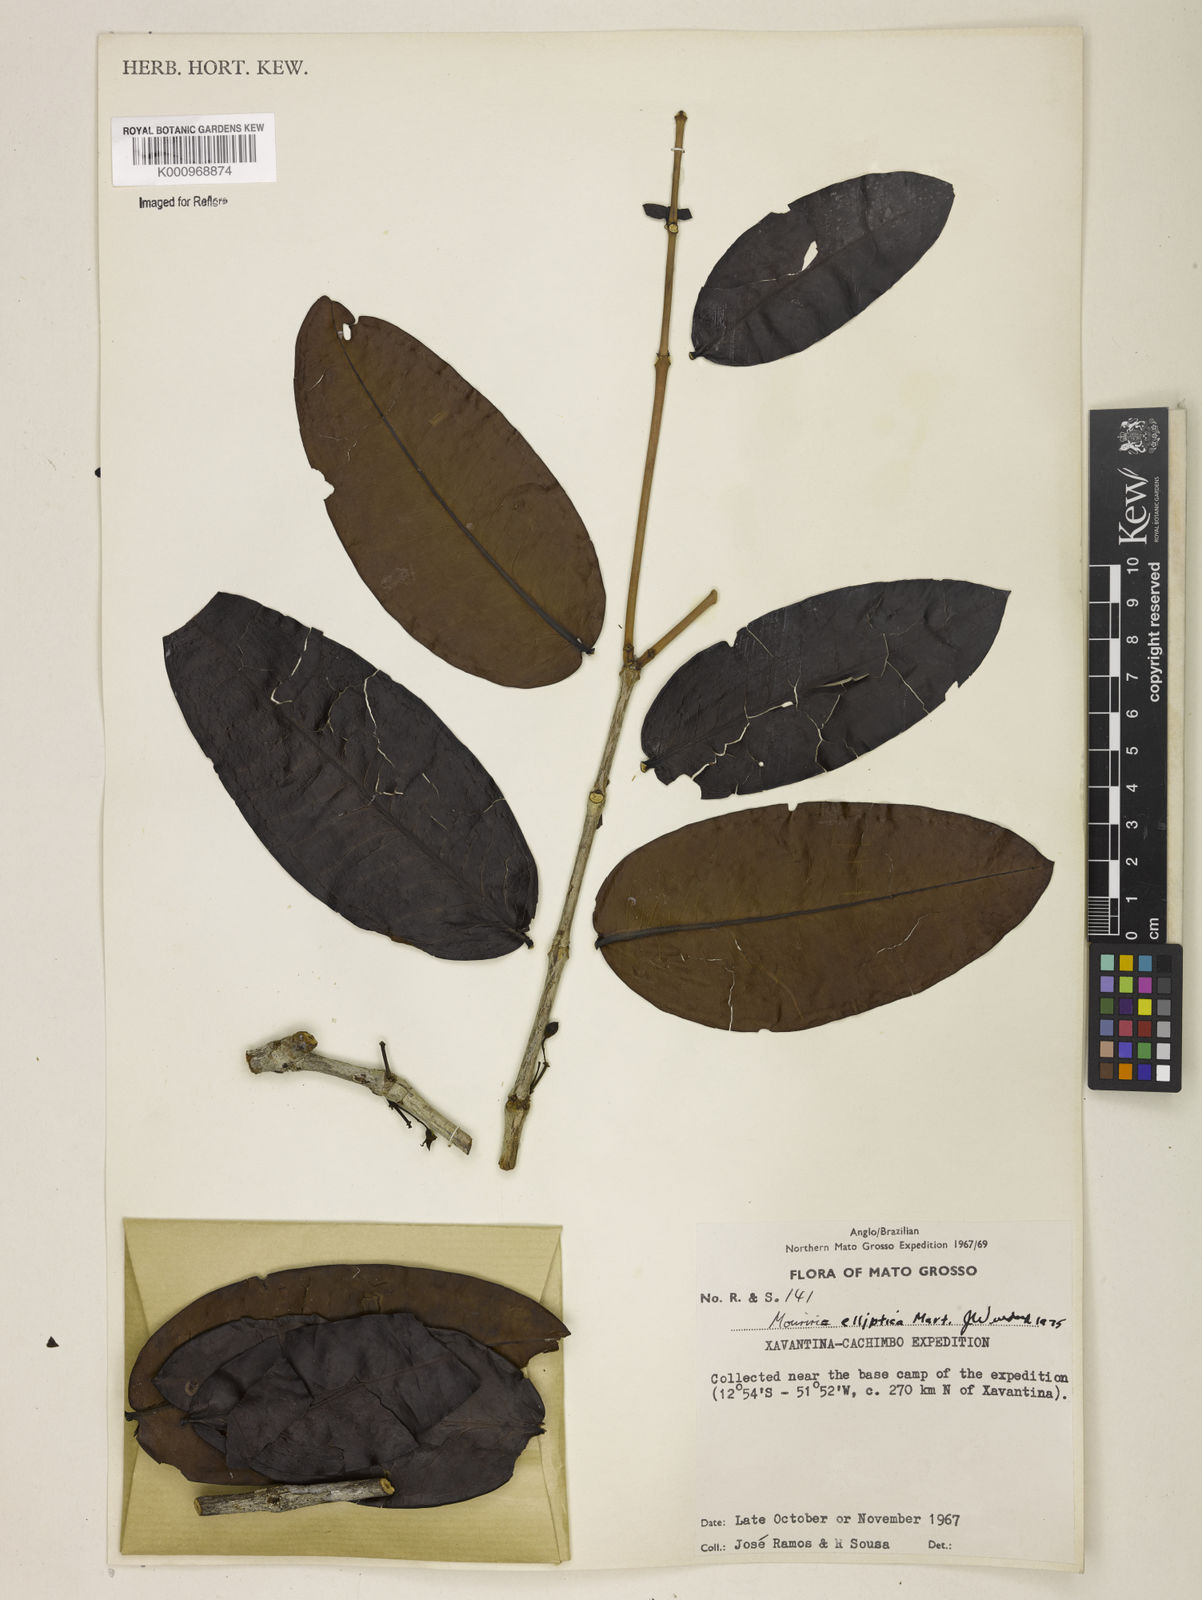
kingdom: Plantae
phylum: Tracheophyta
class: Magnoliopsida
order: Myrtales
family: Melastomataceae
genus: Mouriri
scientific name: Mouriri elliptica
